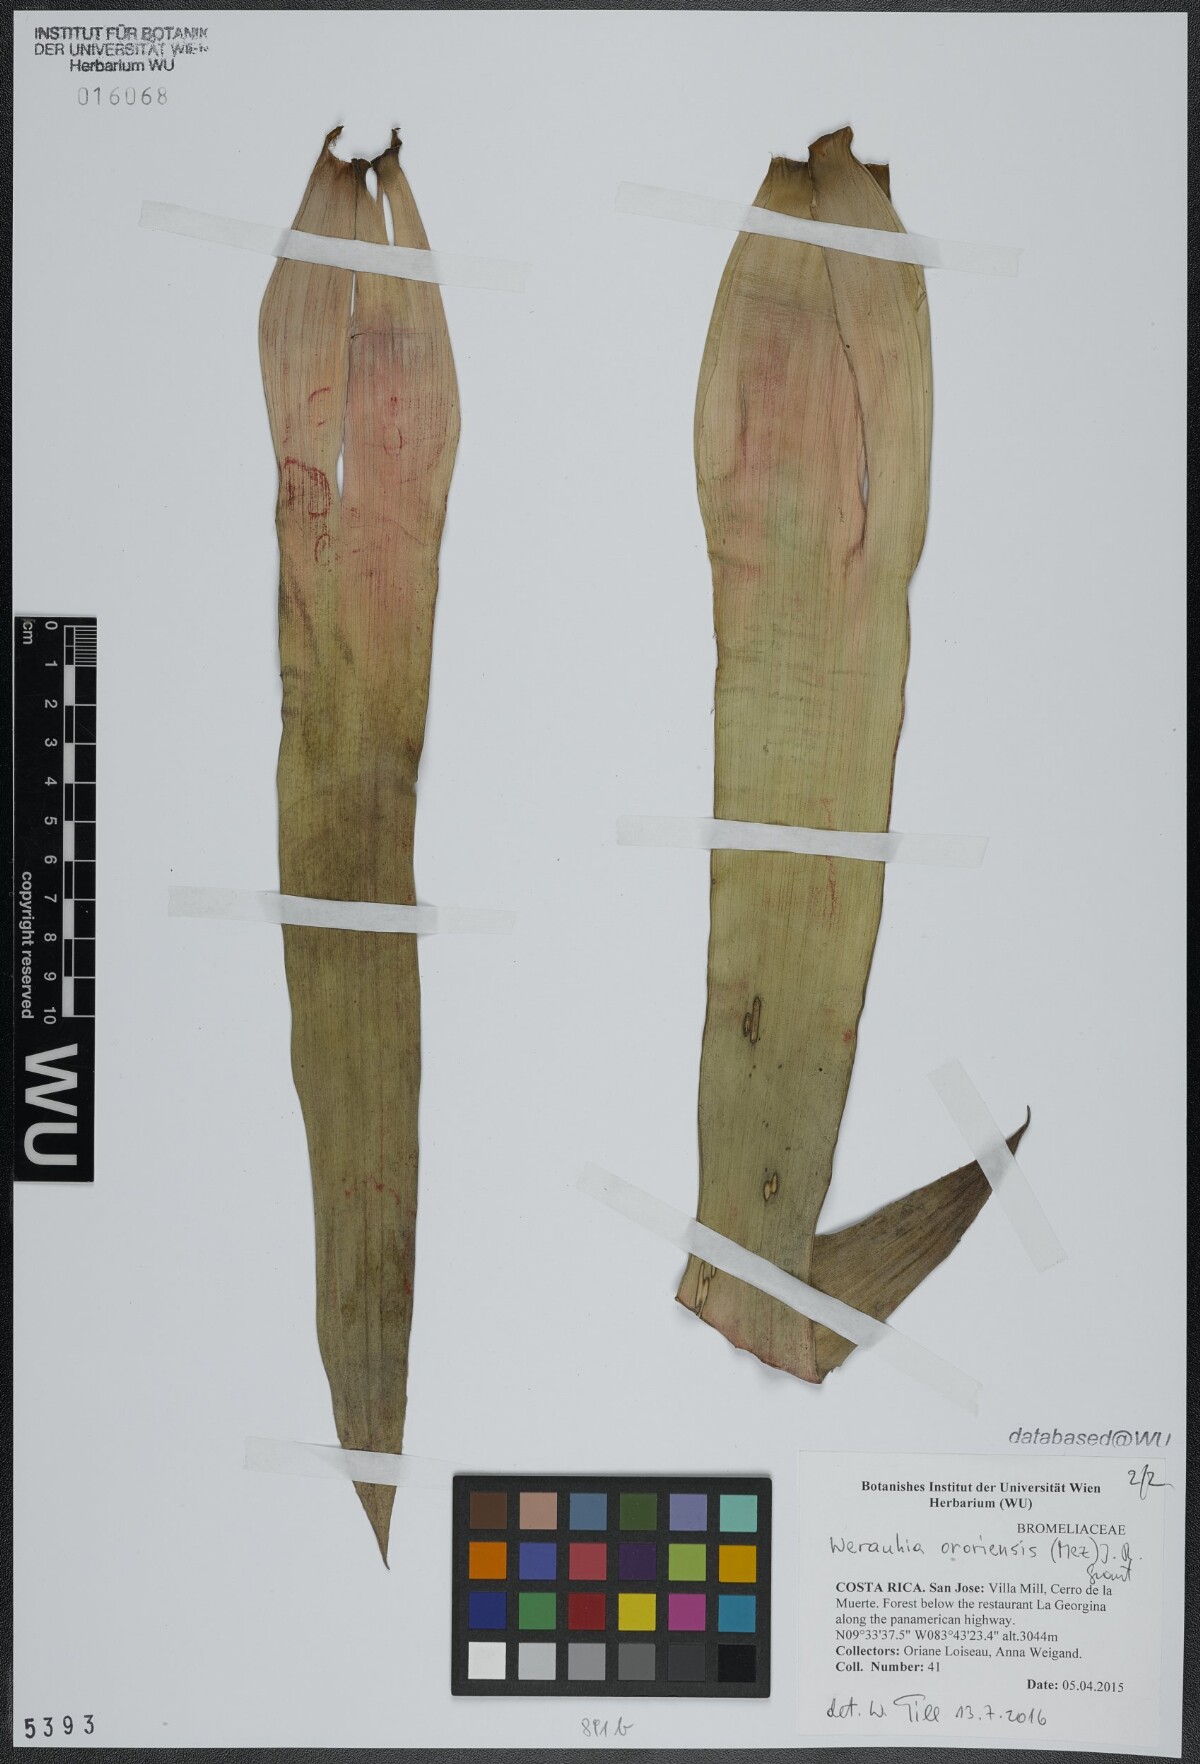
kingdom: Plantae
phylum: Tracheophyta
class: Liliopsida
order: Poales
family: Bromeliaceae
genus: Werauhia
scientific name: Werauhia ororiensis
